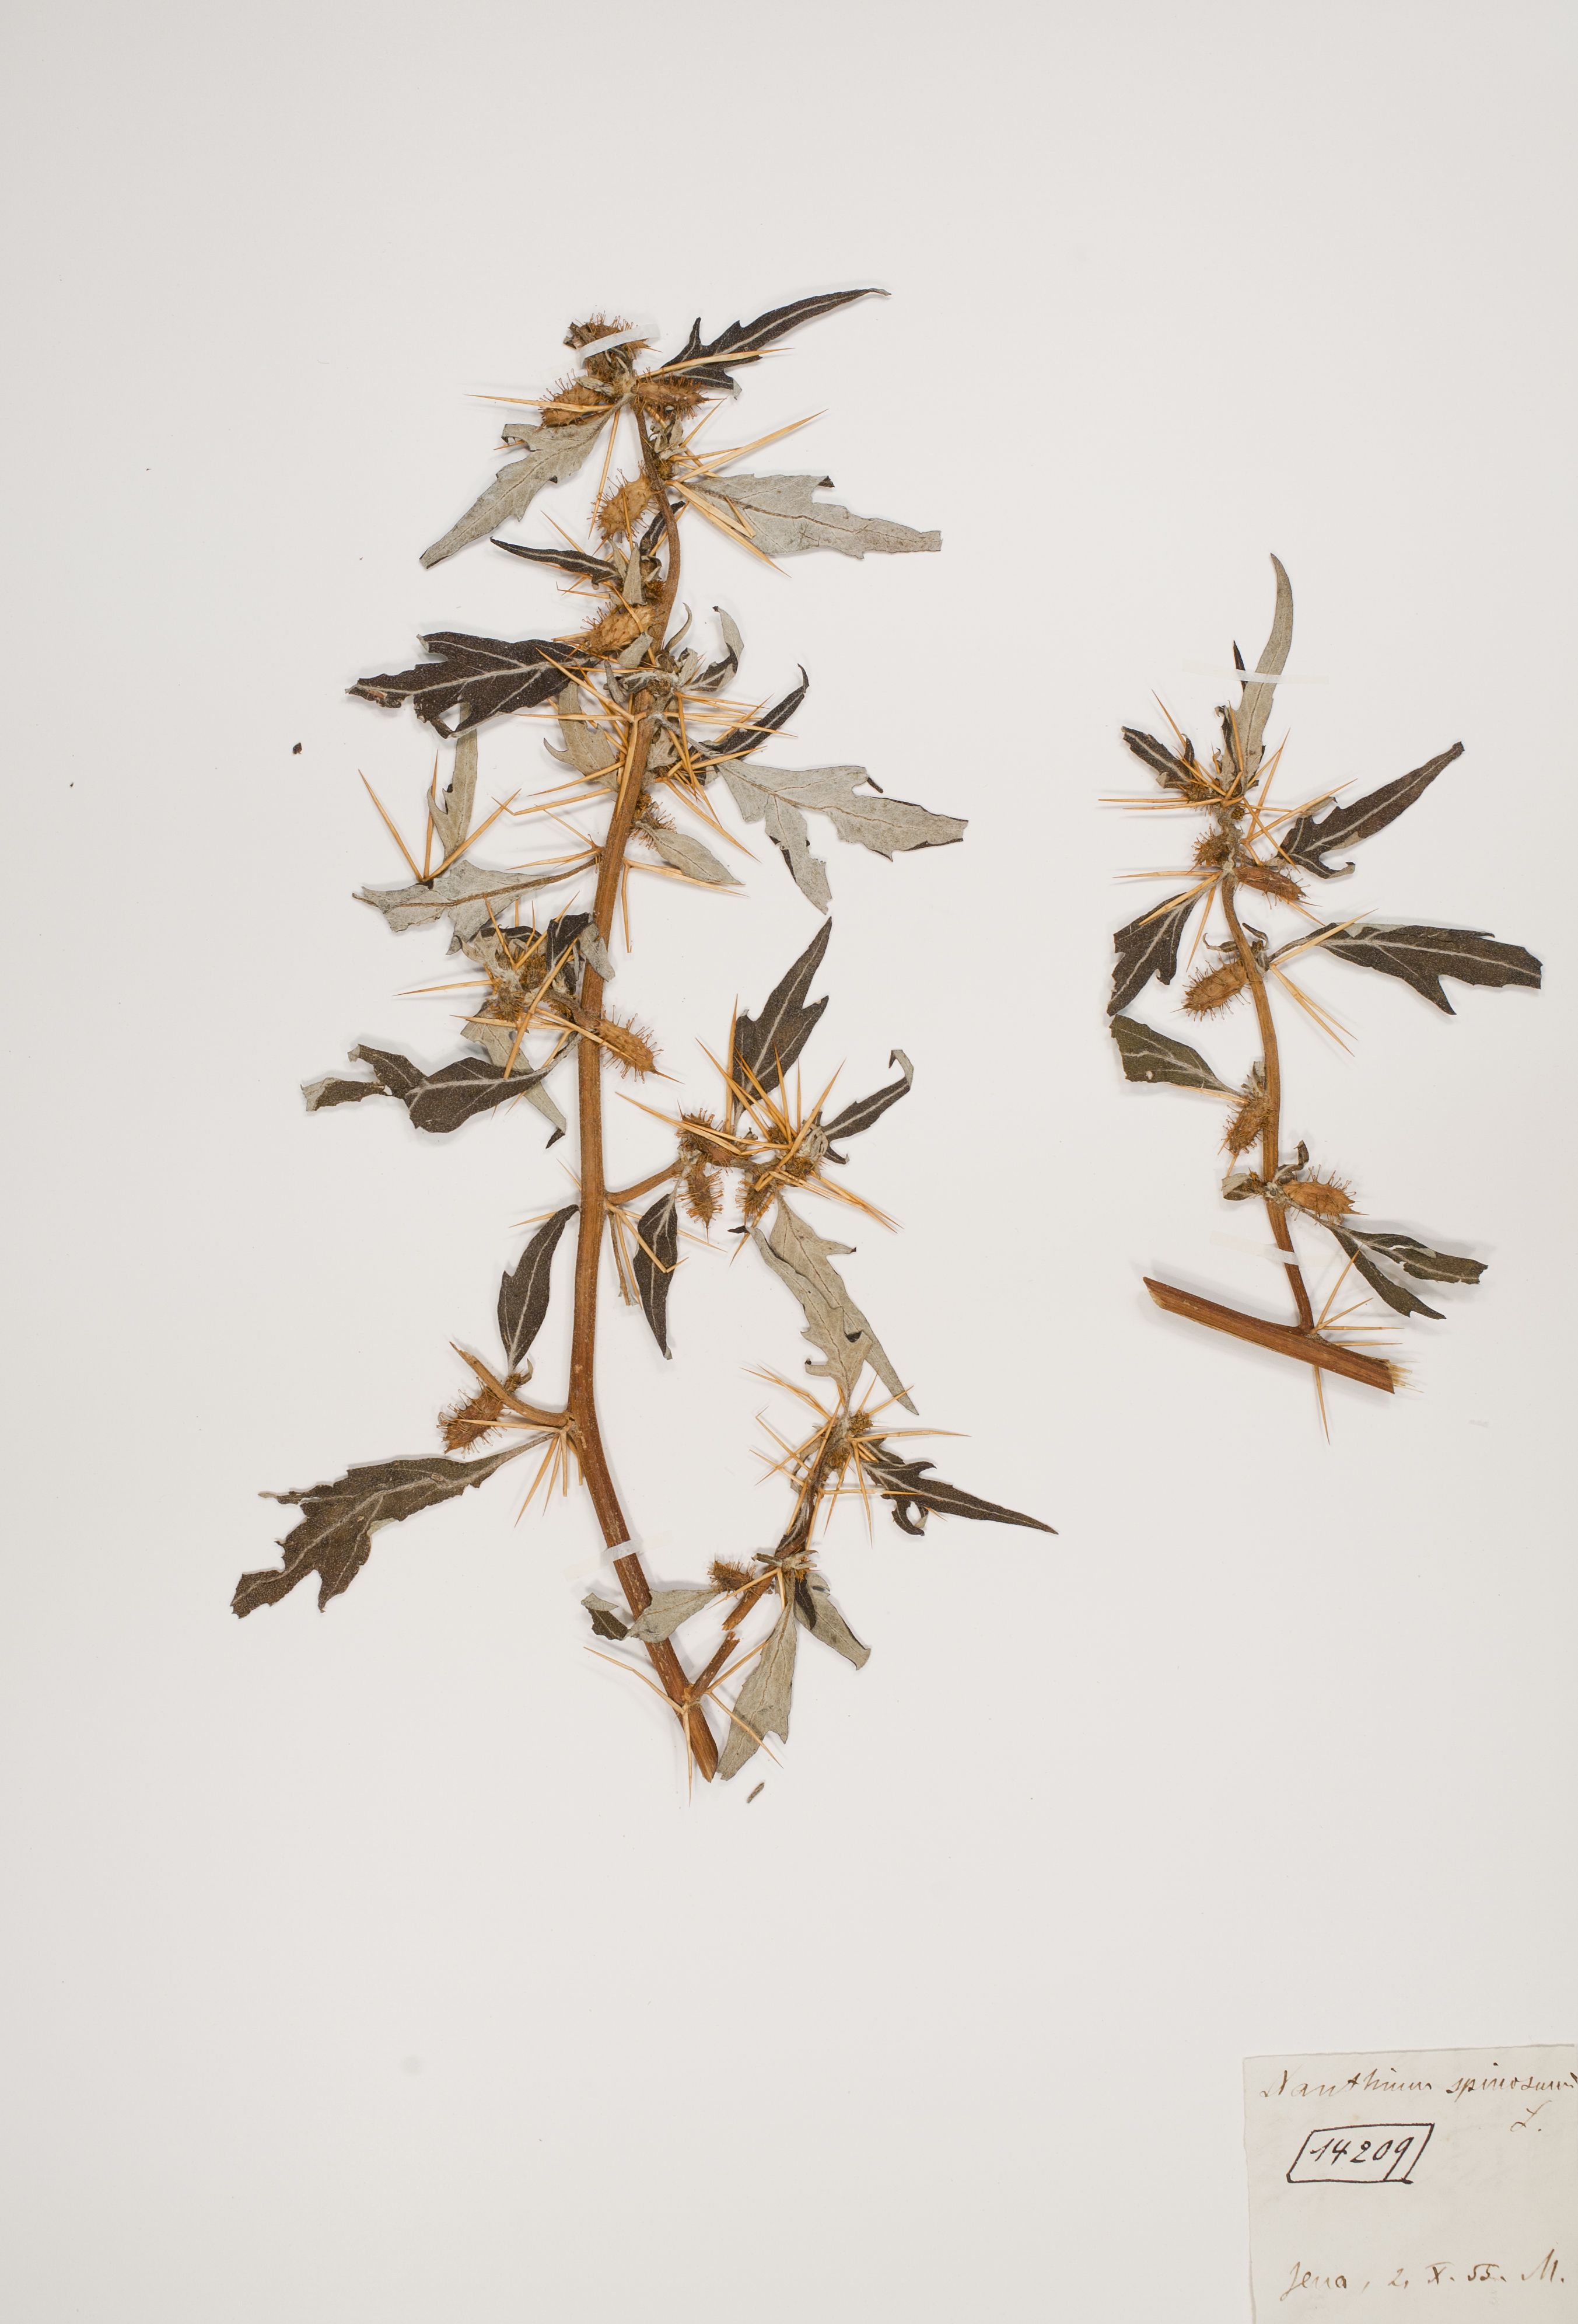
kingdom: Plantae
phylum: Tracheophyta
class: Magnoliopsida
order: Asterales
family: Asteraceae
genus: Xanthium
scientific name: Xanthium spinosum
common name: Spiny cocklebur
